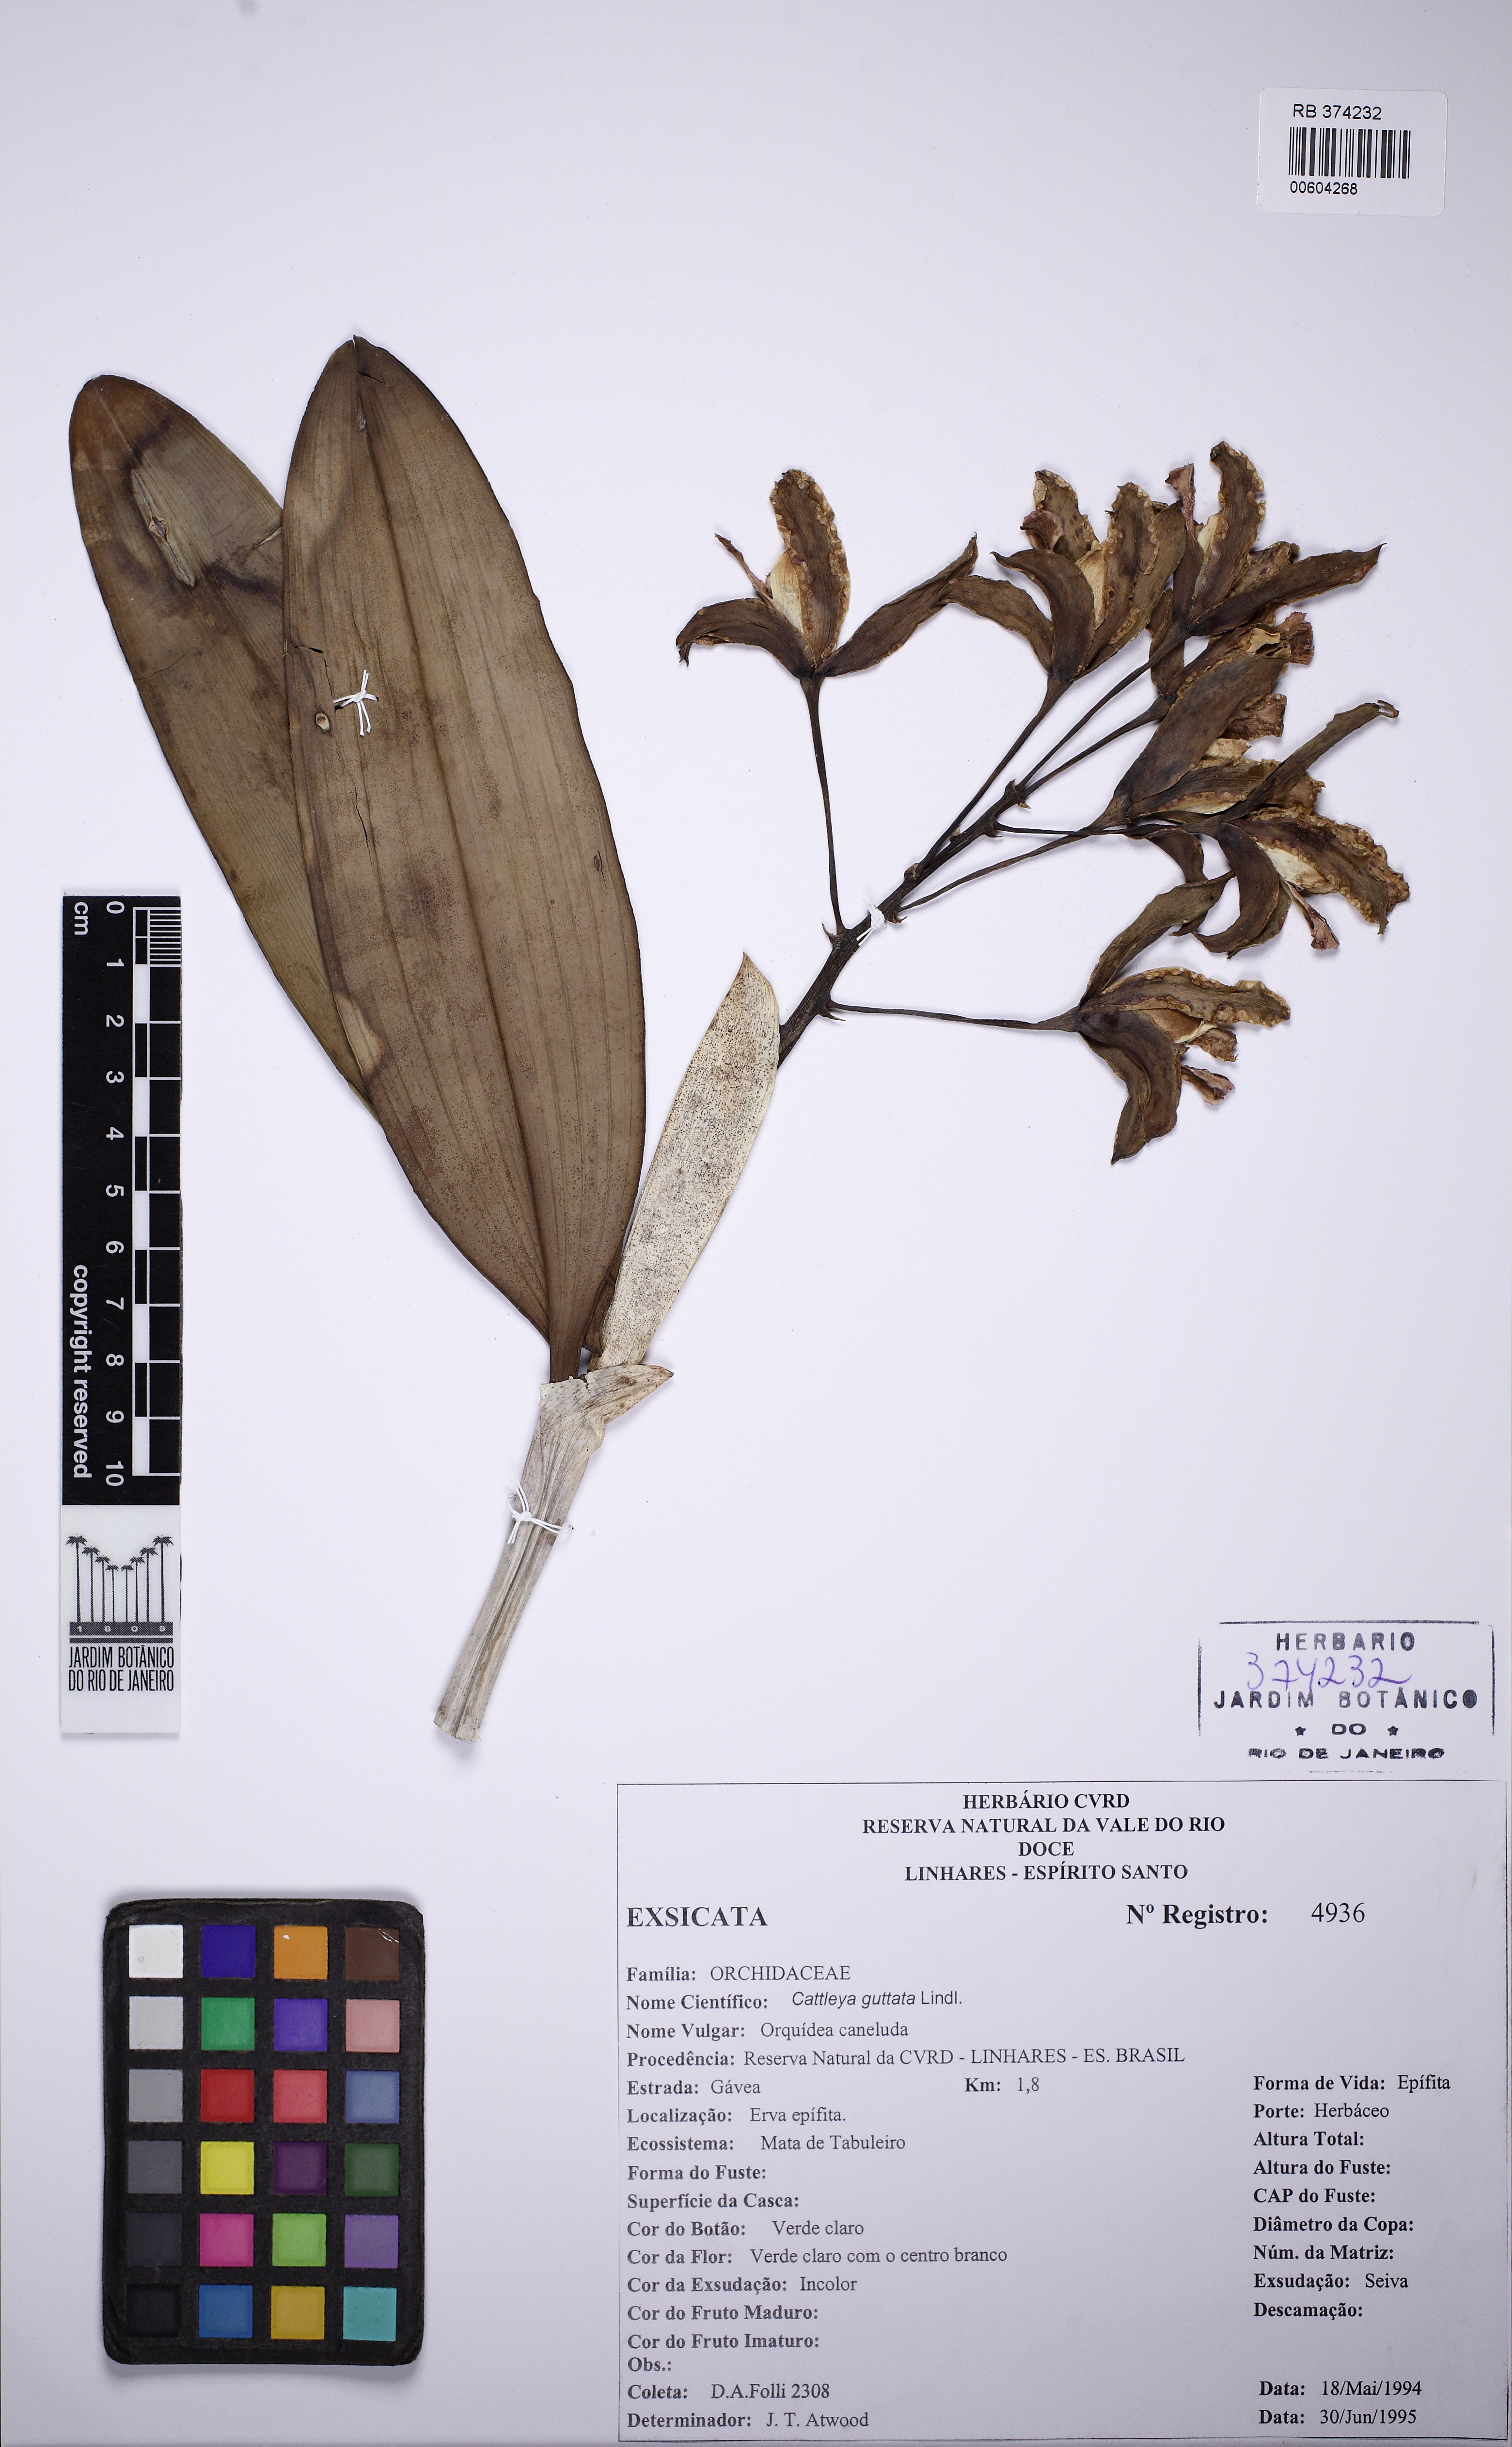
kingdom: Plantae
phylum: Tracheophyta
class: Liliopsida
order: Asparagales
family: Orchidaceae
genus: Cattleya
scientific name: Cattleya guttata
